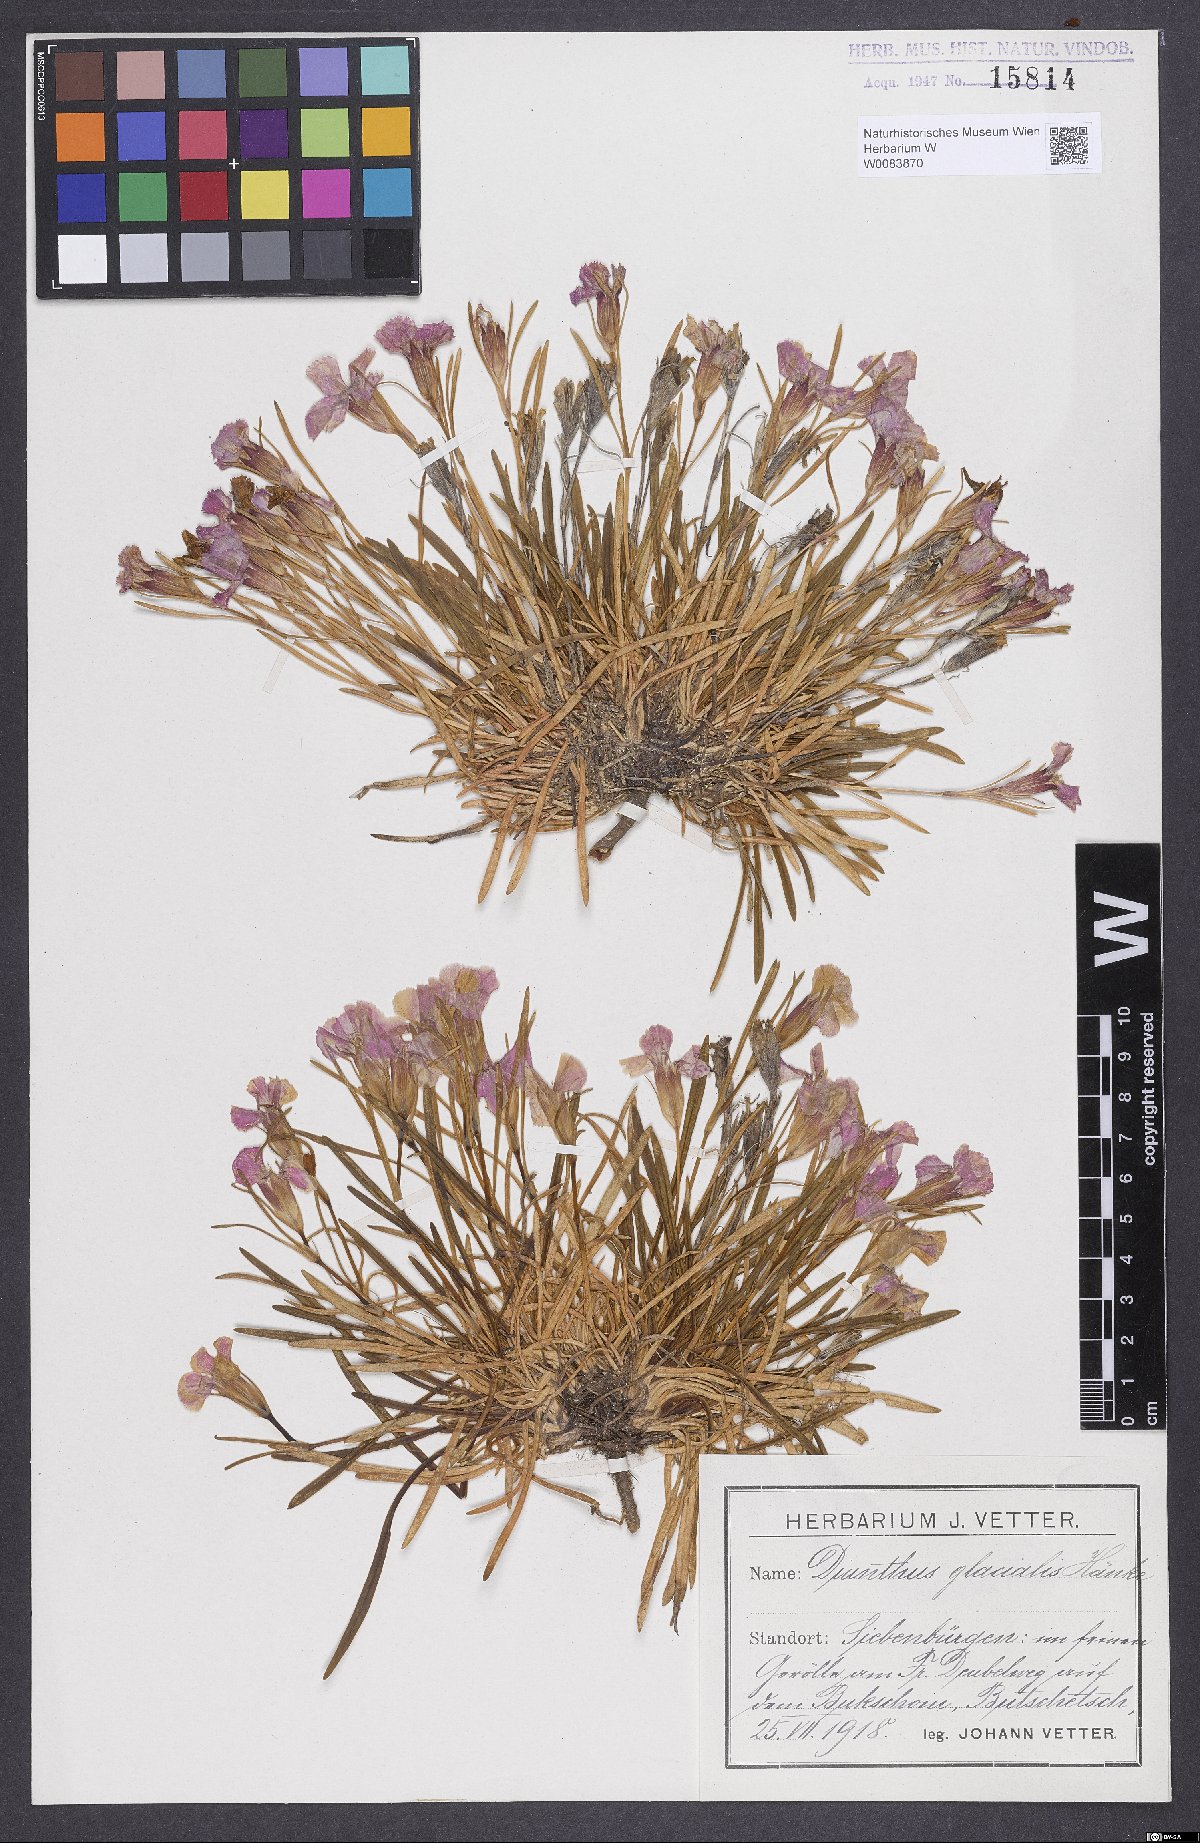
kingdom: Plantae
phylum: Tracheophyta
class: Magnoliopsida
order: Caryophyllales
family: Caryophyllaceae
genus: Dianthus
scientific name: Dianthus glacialis
